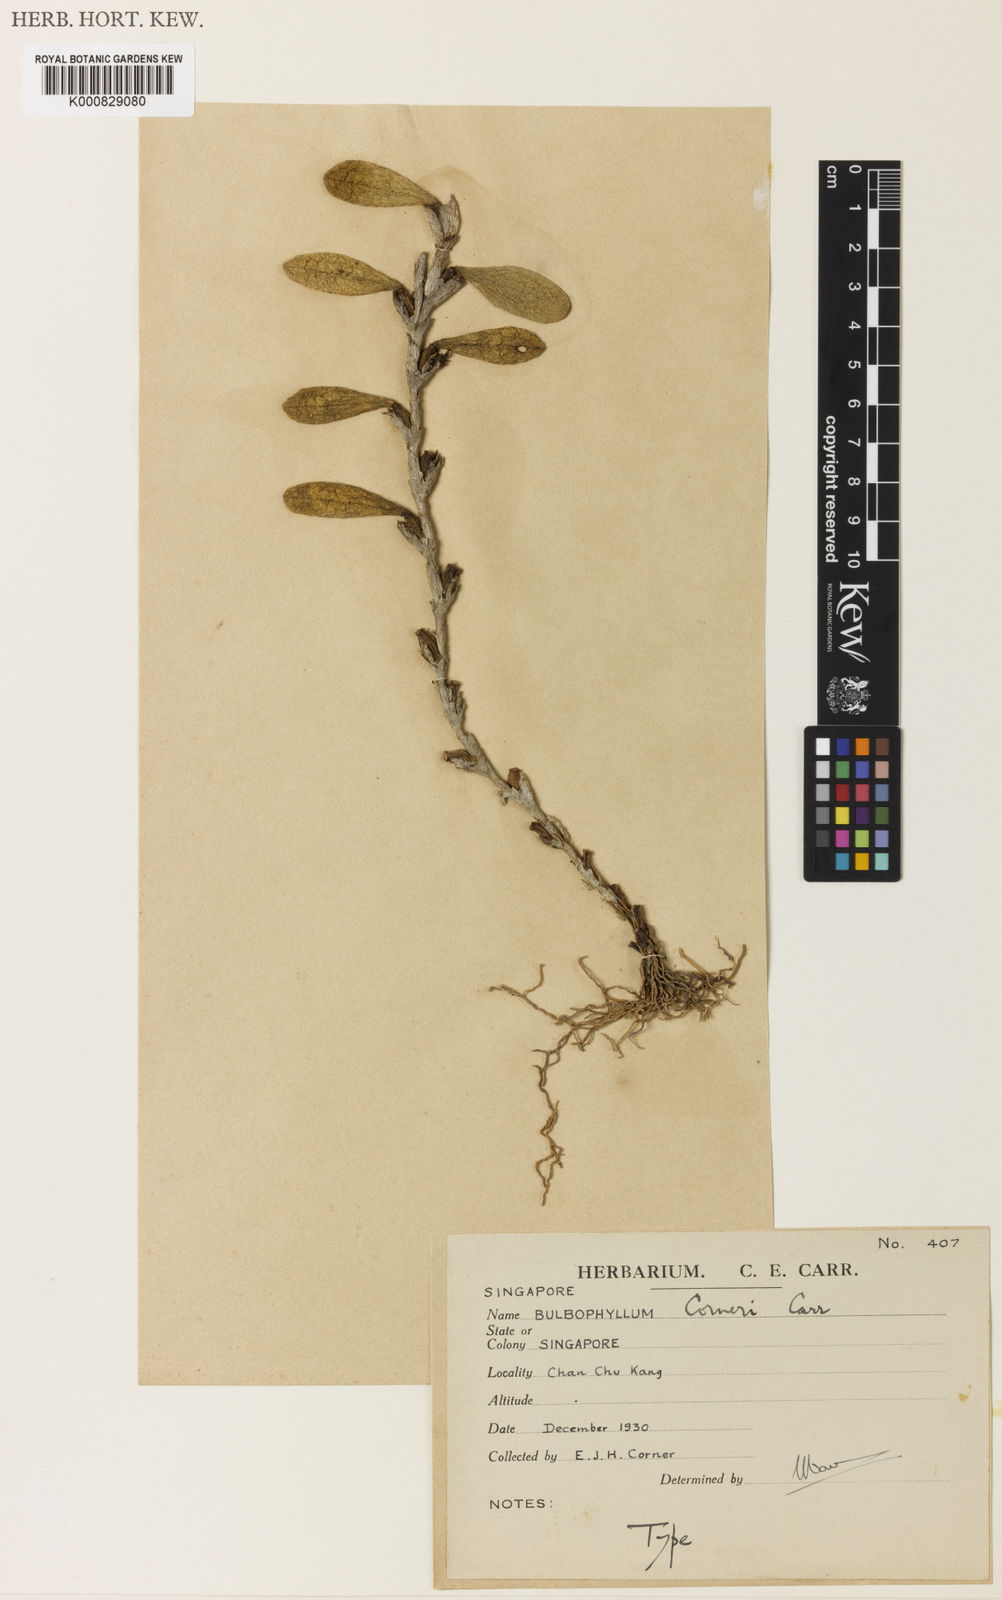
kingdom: Plantae
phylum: Tracheophyta
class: Liliopsida
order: Asparagales
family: Orchidaceae
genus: Bulbophyllum
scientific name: Bulbophyllum vesiculosum
